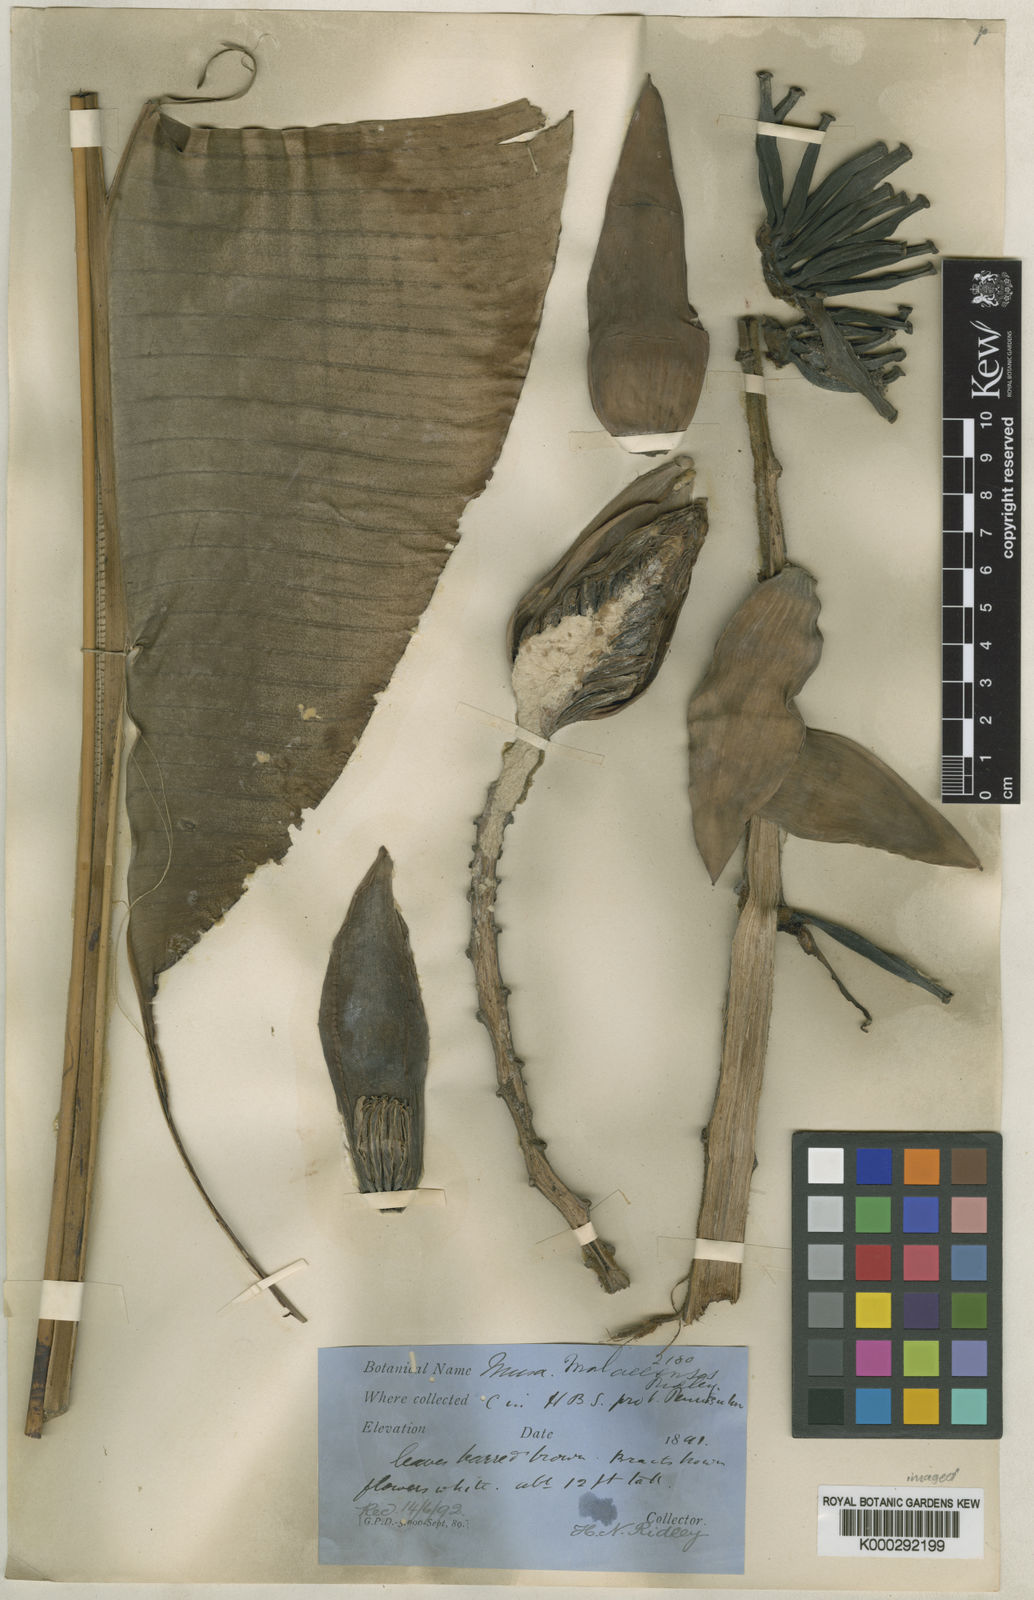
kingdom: Plantae
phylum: Tracheophyta
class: Liliopsida
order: Zingiberales
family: Musaceae
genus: Musa
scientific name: Musa acuminata
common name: Edible banana
